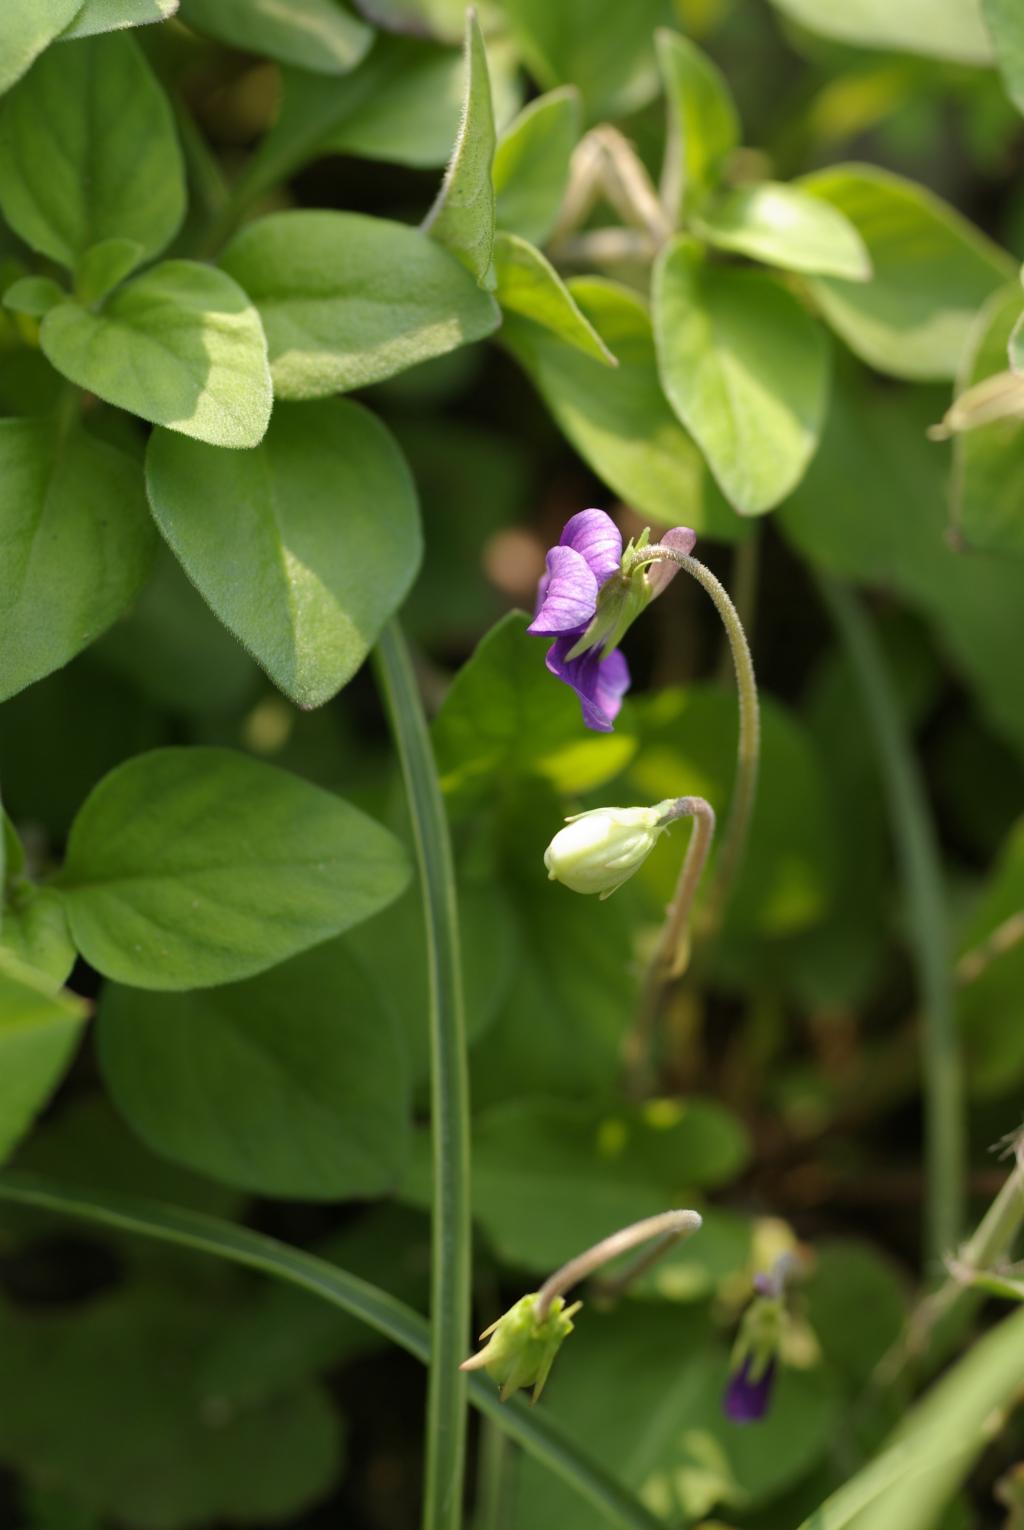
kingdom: Plantae
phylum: Tracheophyta
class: Magnoliopsida
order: Malpighiales
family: Violaceae
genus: Viola
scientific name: Viola philippica
